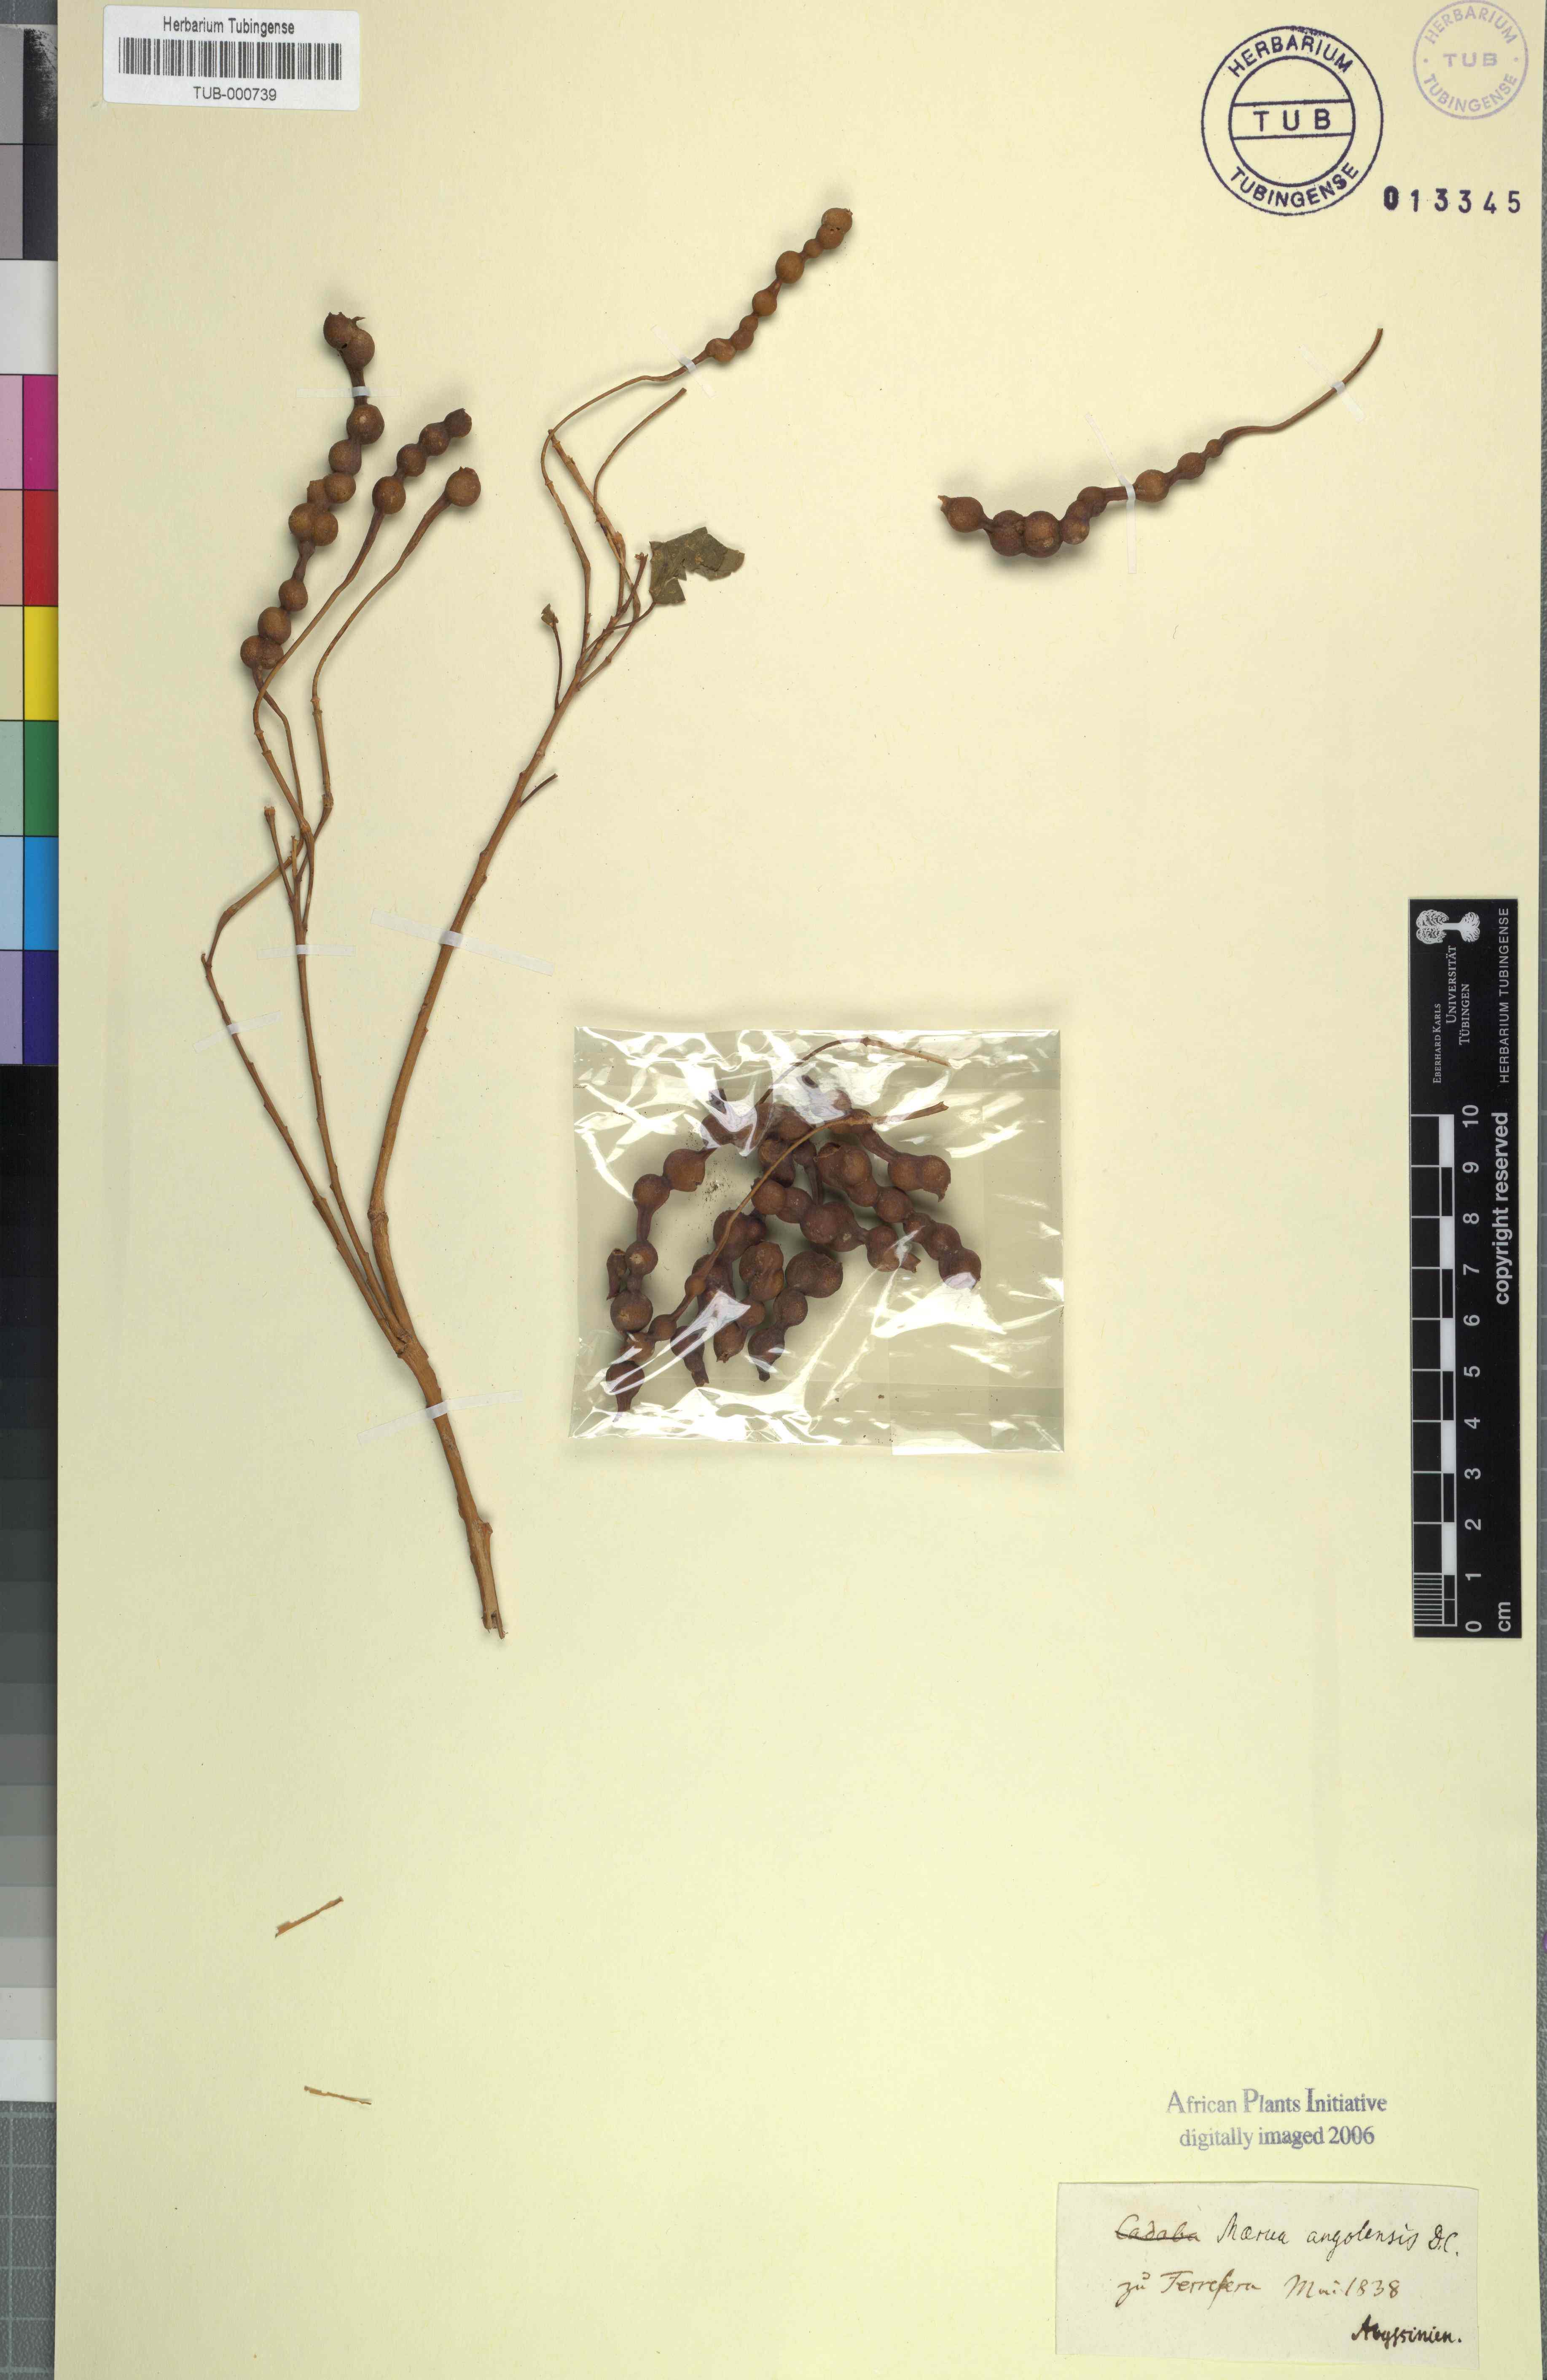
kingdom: Plantae
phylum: Tracheophyta
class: Magnoliopsida
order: Brassicales
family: Capparaceae
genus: Maerua
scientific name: Maerua angolensis
